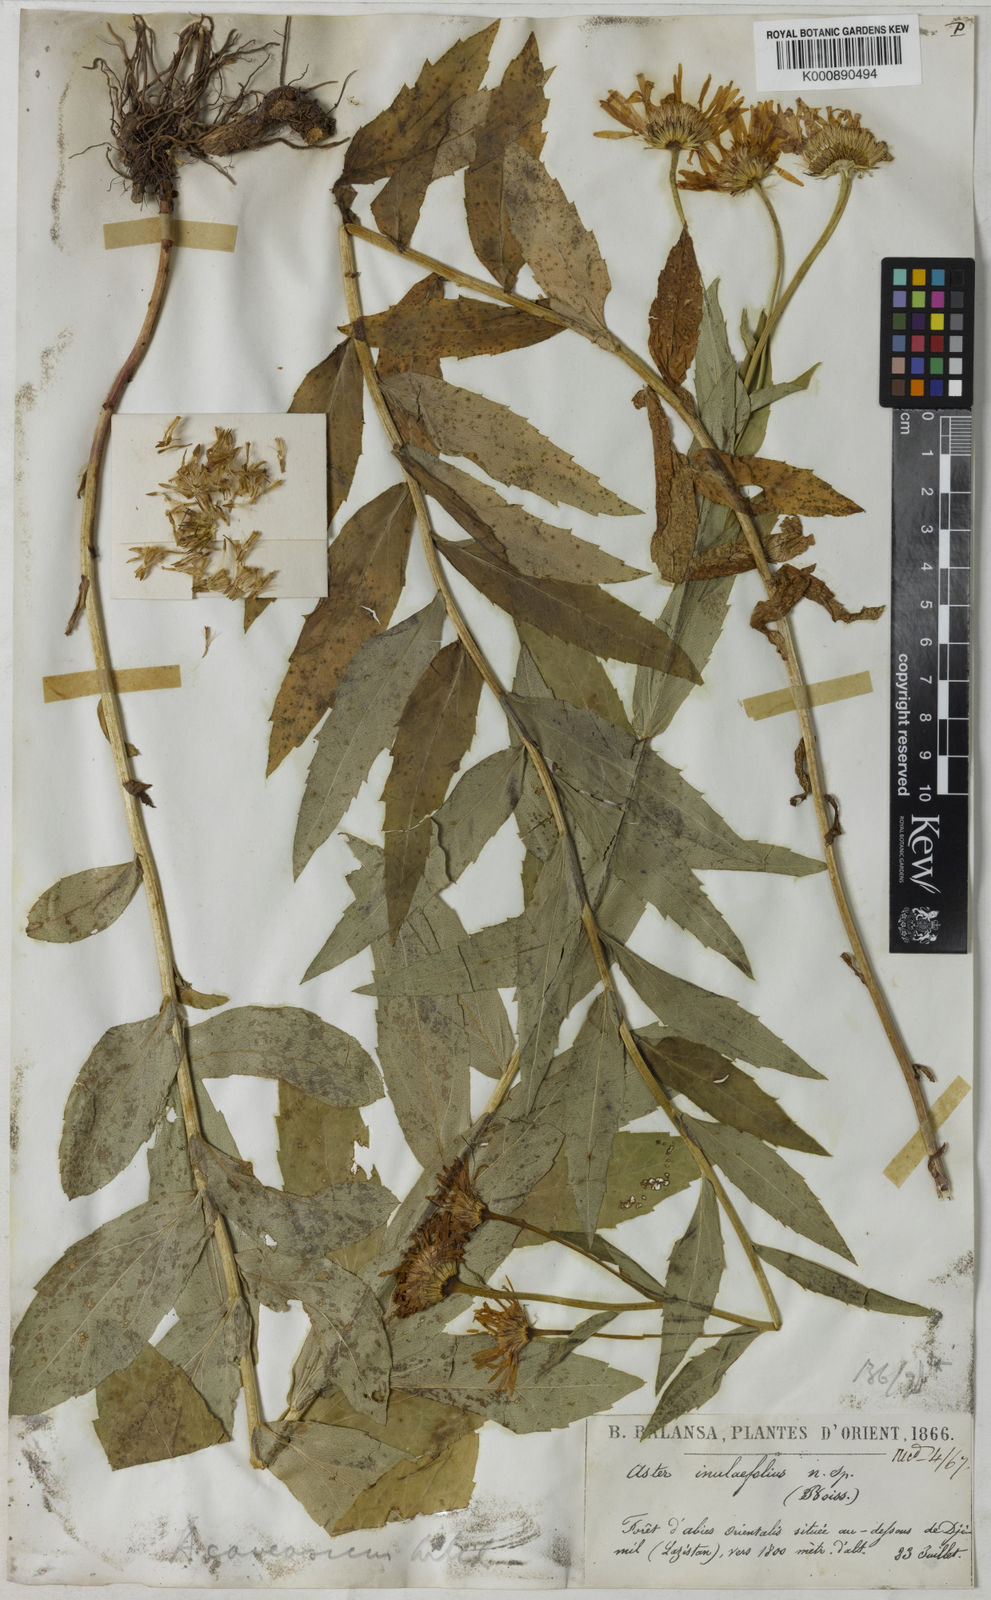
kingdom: Plantae
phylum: Tracheophyta
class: Magnoliopsida
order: Asterales
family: Asteraceae
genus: Kemulariella
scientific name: Kemulariella caucasica
